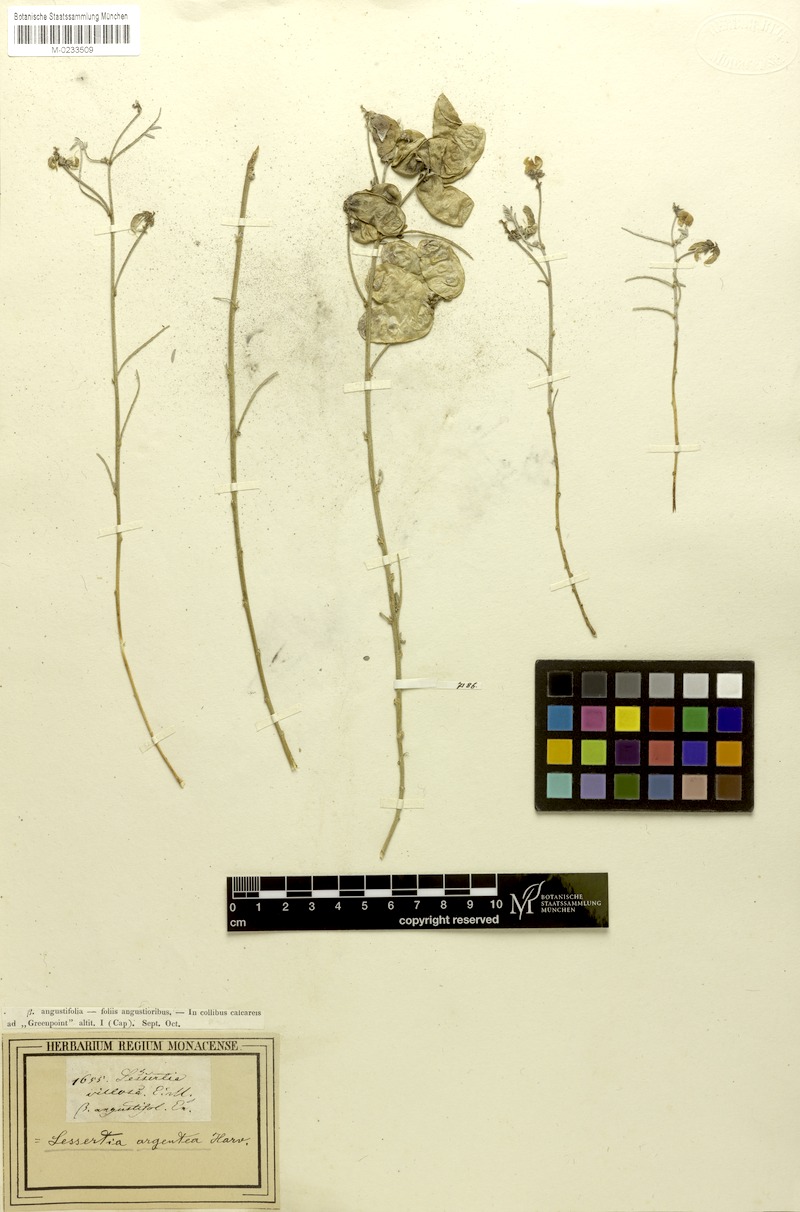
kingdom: Plantae
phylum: Tracheophyta
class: Magnoliopsida
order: Fabales
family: Fabaceae
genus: Lessertia
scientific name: Lessertia villosa
